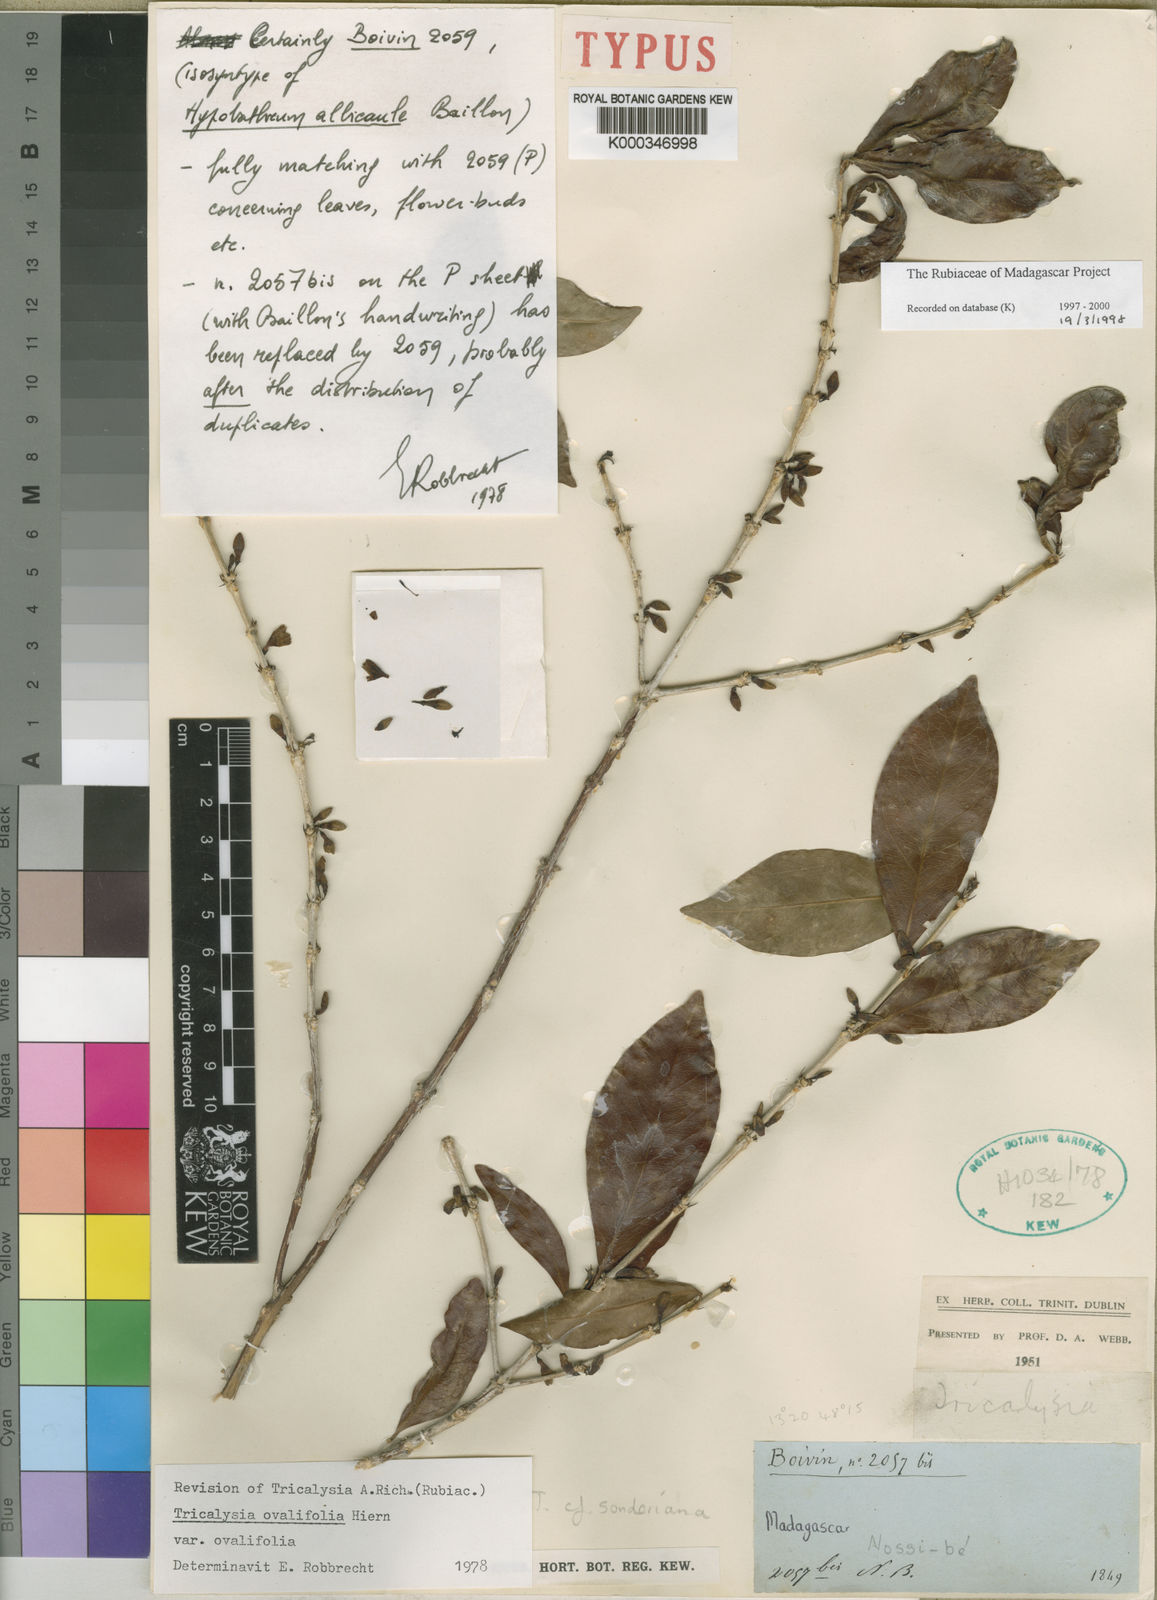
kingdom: Plantae
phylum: Tracheophyta
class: Magnoliopsida
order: Gentianales
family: Rubiaceae
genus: Empogona
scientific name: Empogona ovalifolia
